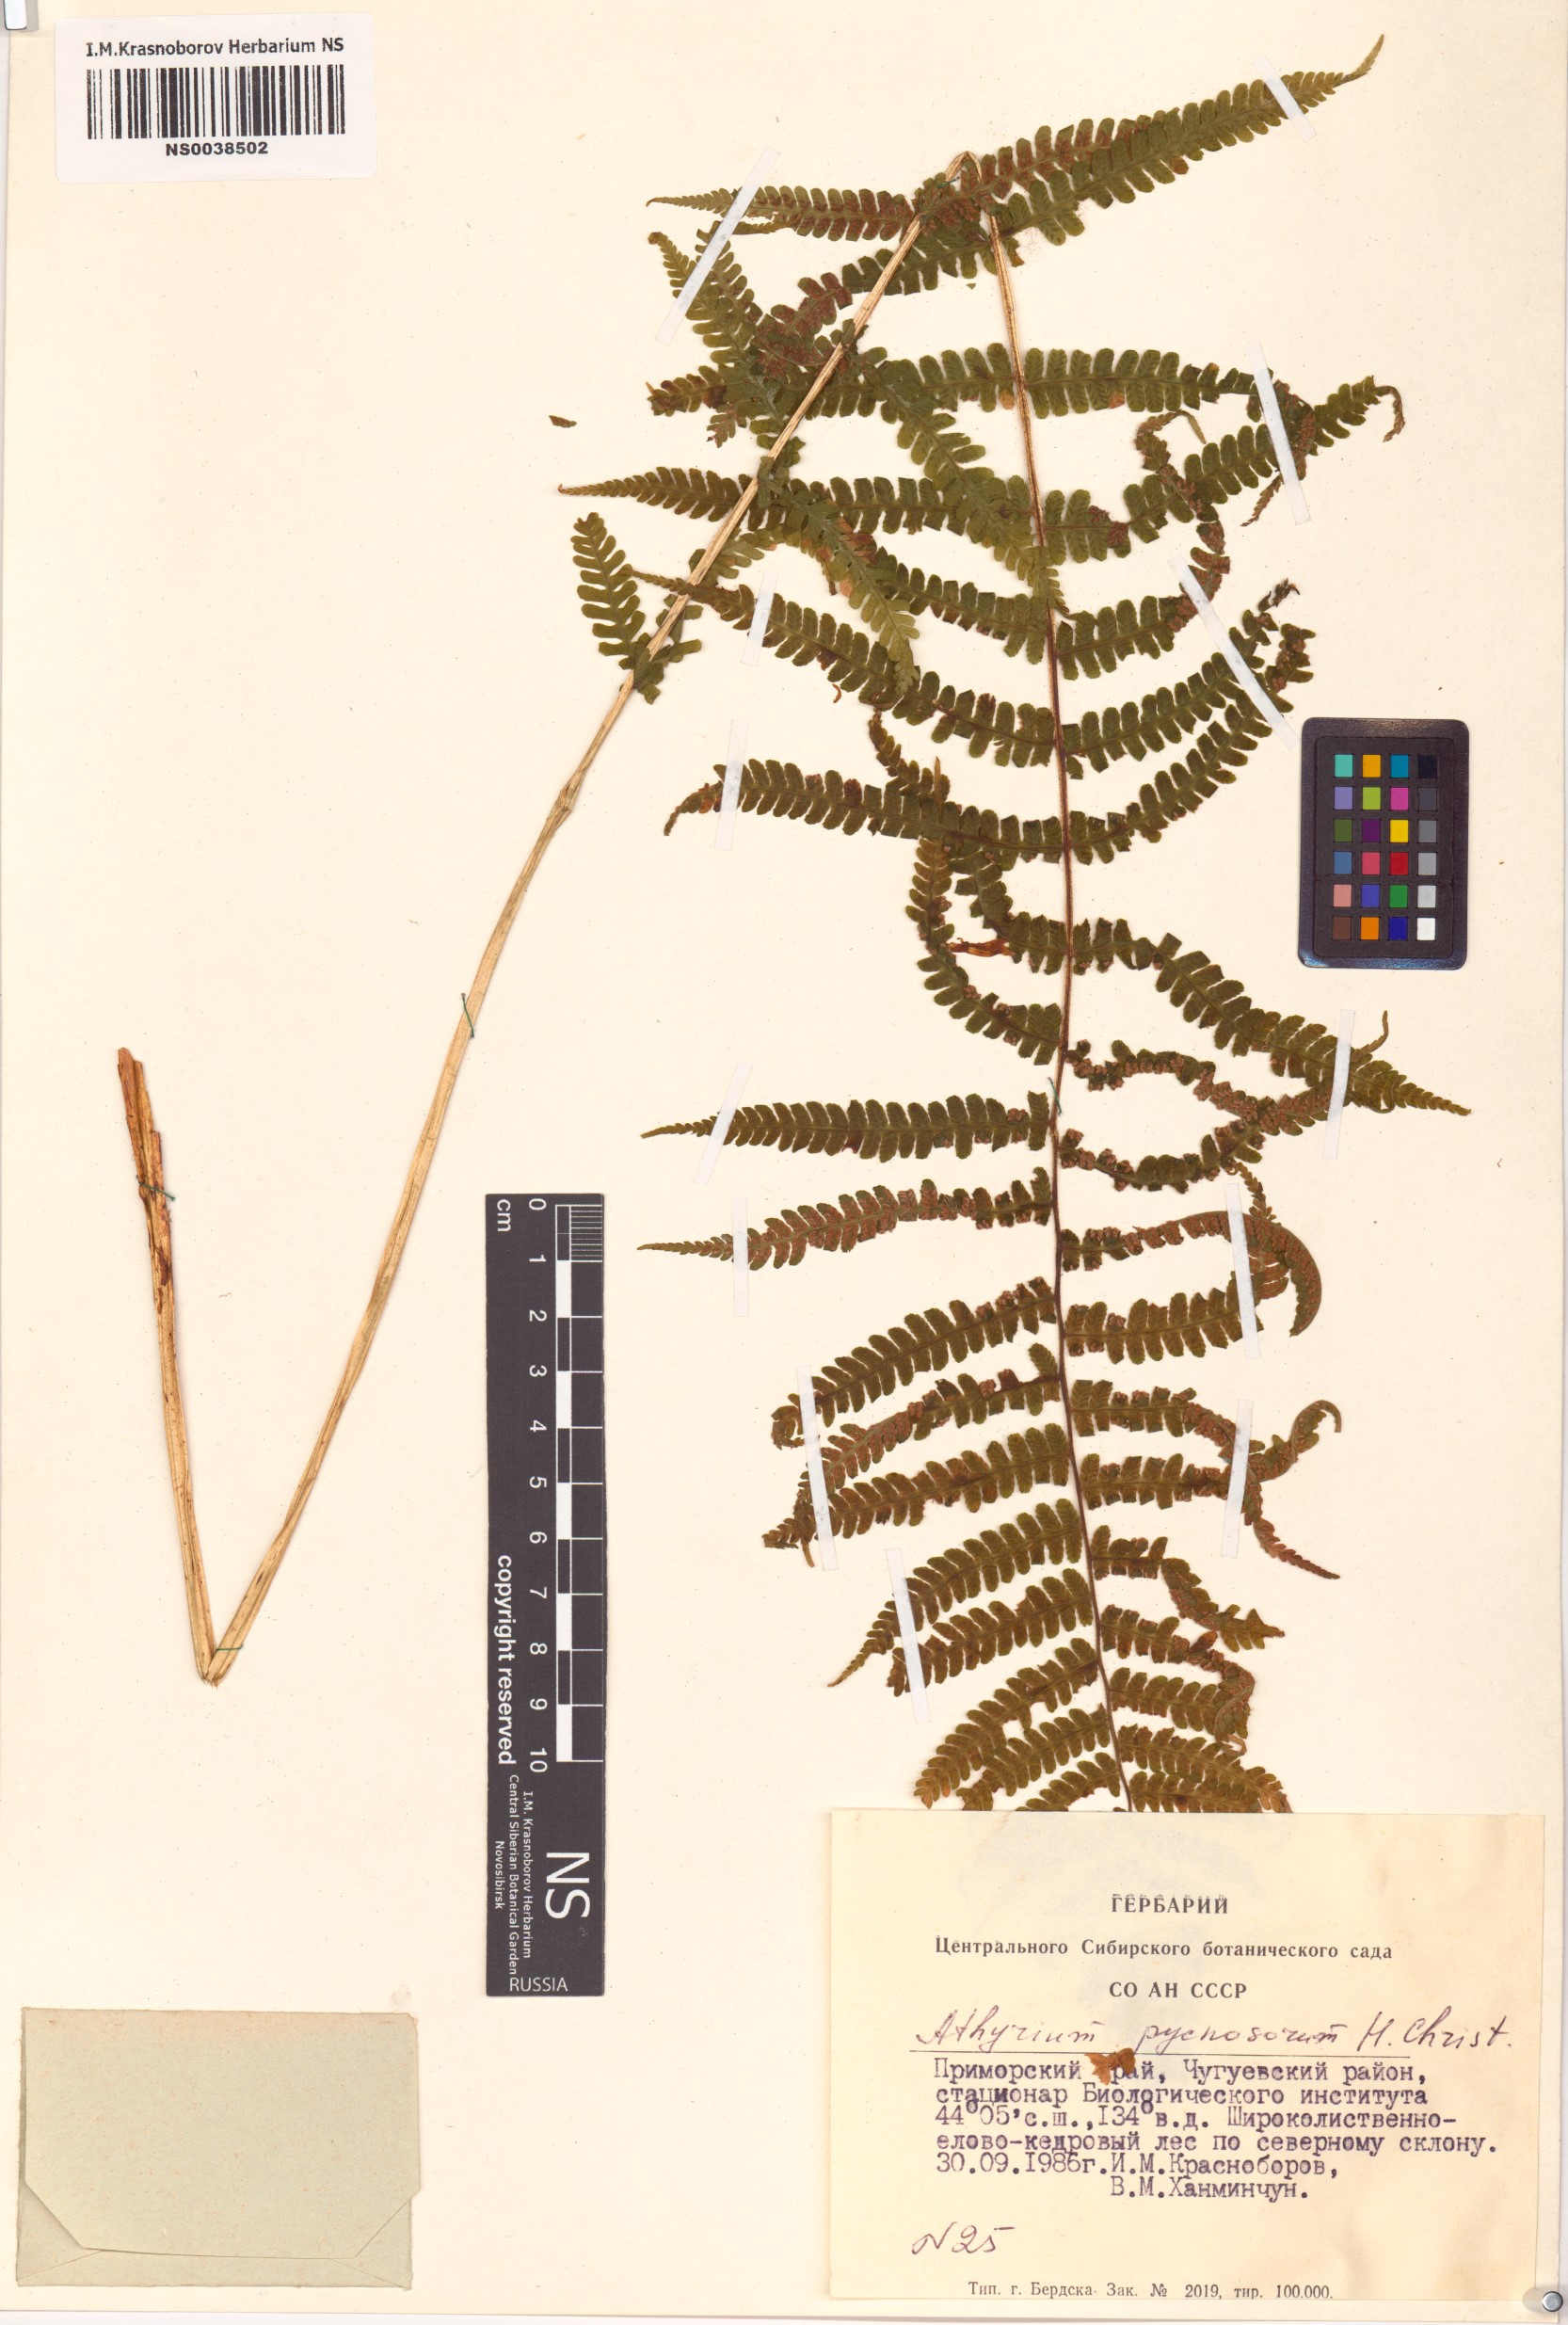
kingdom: Plantae
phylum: Tracheophyta
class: Polypodiopsida
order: Polypodiales
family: Athyriaceae
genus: Deparia
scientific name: Deparia pycnosora
